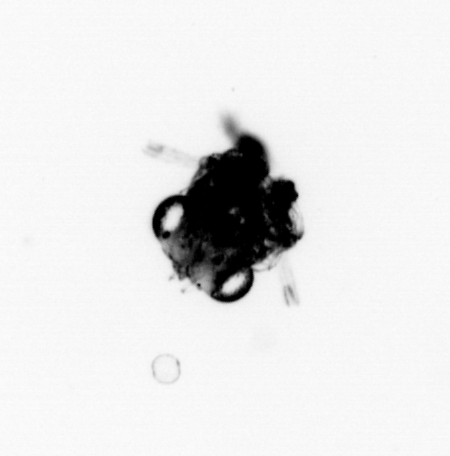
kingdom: Animalia
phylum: Arthropoda
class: Malacostraca
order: Decapoda
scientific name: Decapoda
